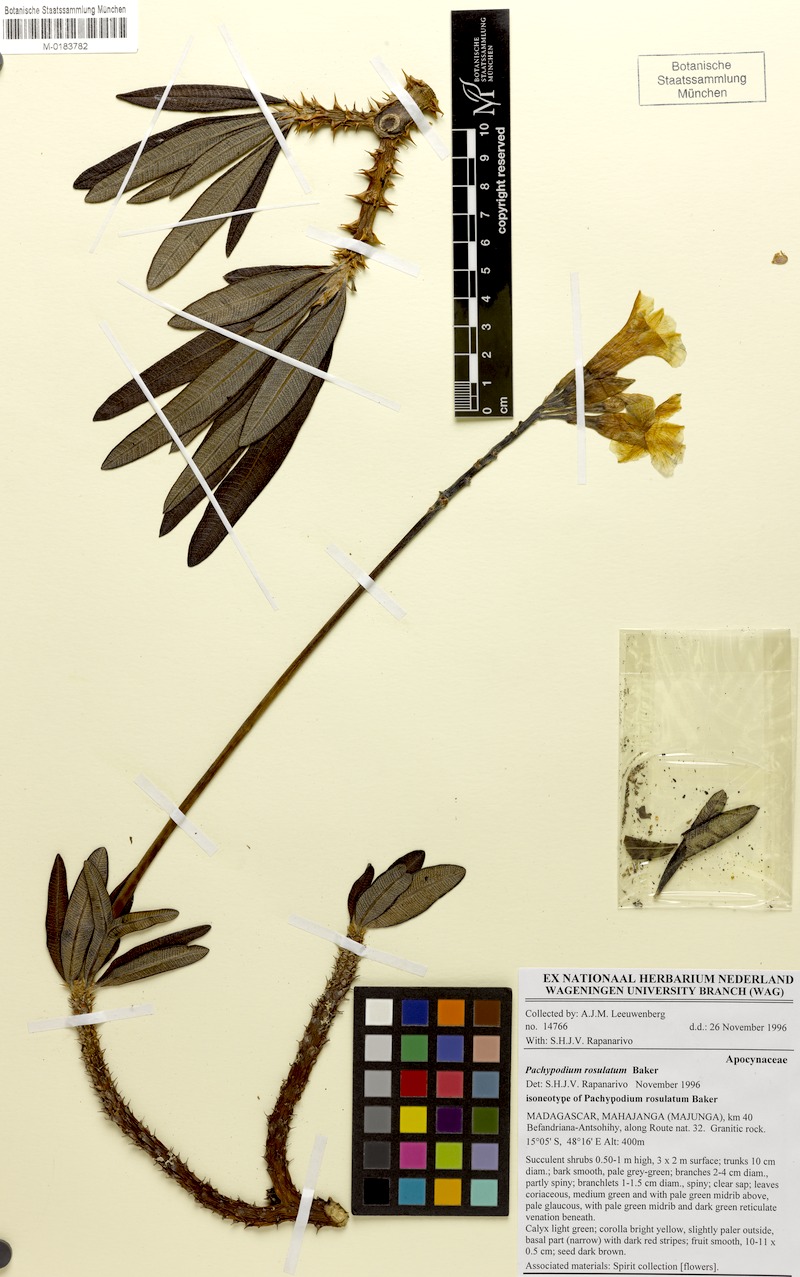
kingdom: Plantae
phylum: Tracheophyta
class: Magnoliopsida
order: Gentianales
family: Apocynaceae
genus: Pachypodium
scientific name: Pachypodium rosulatum
